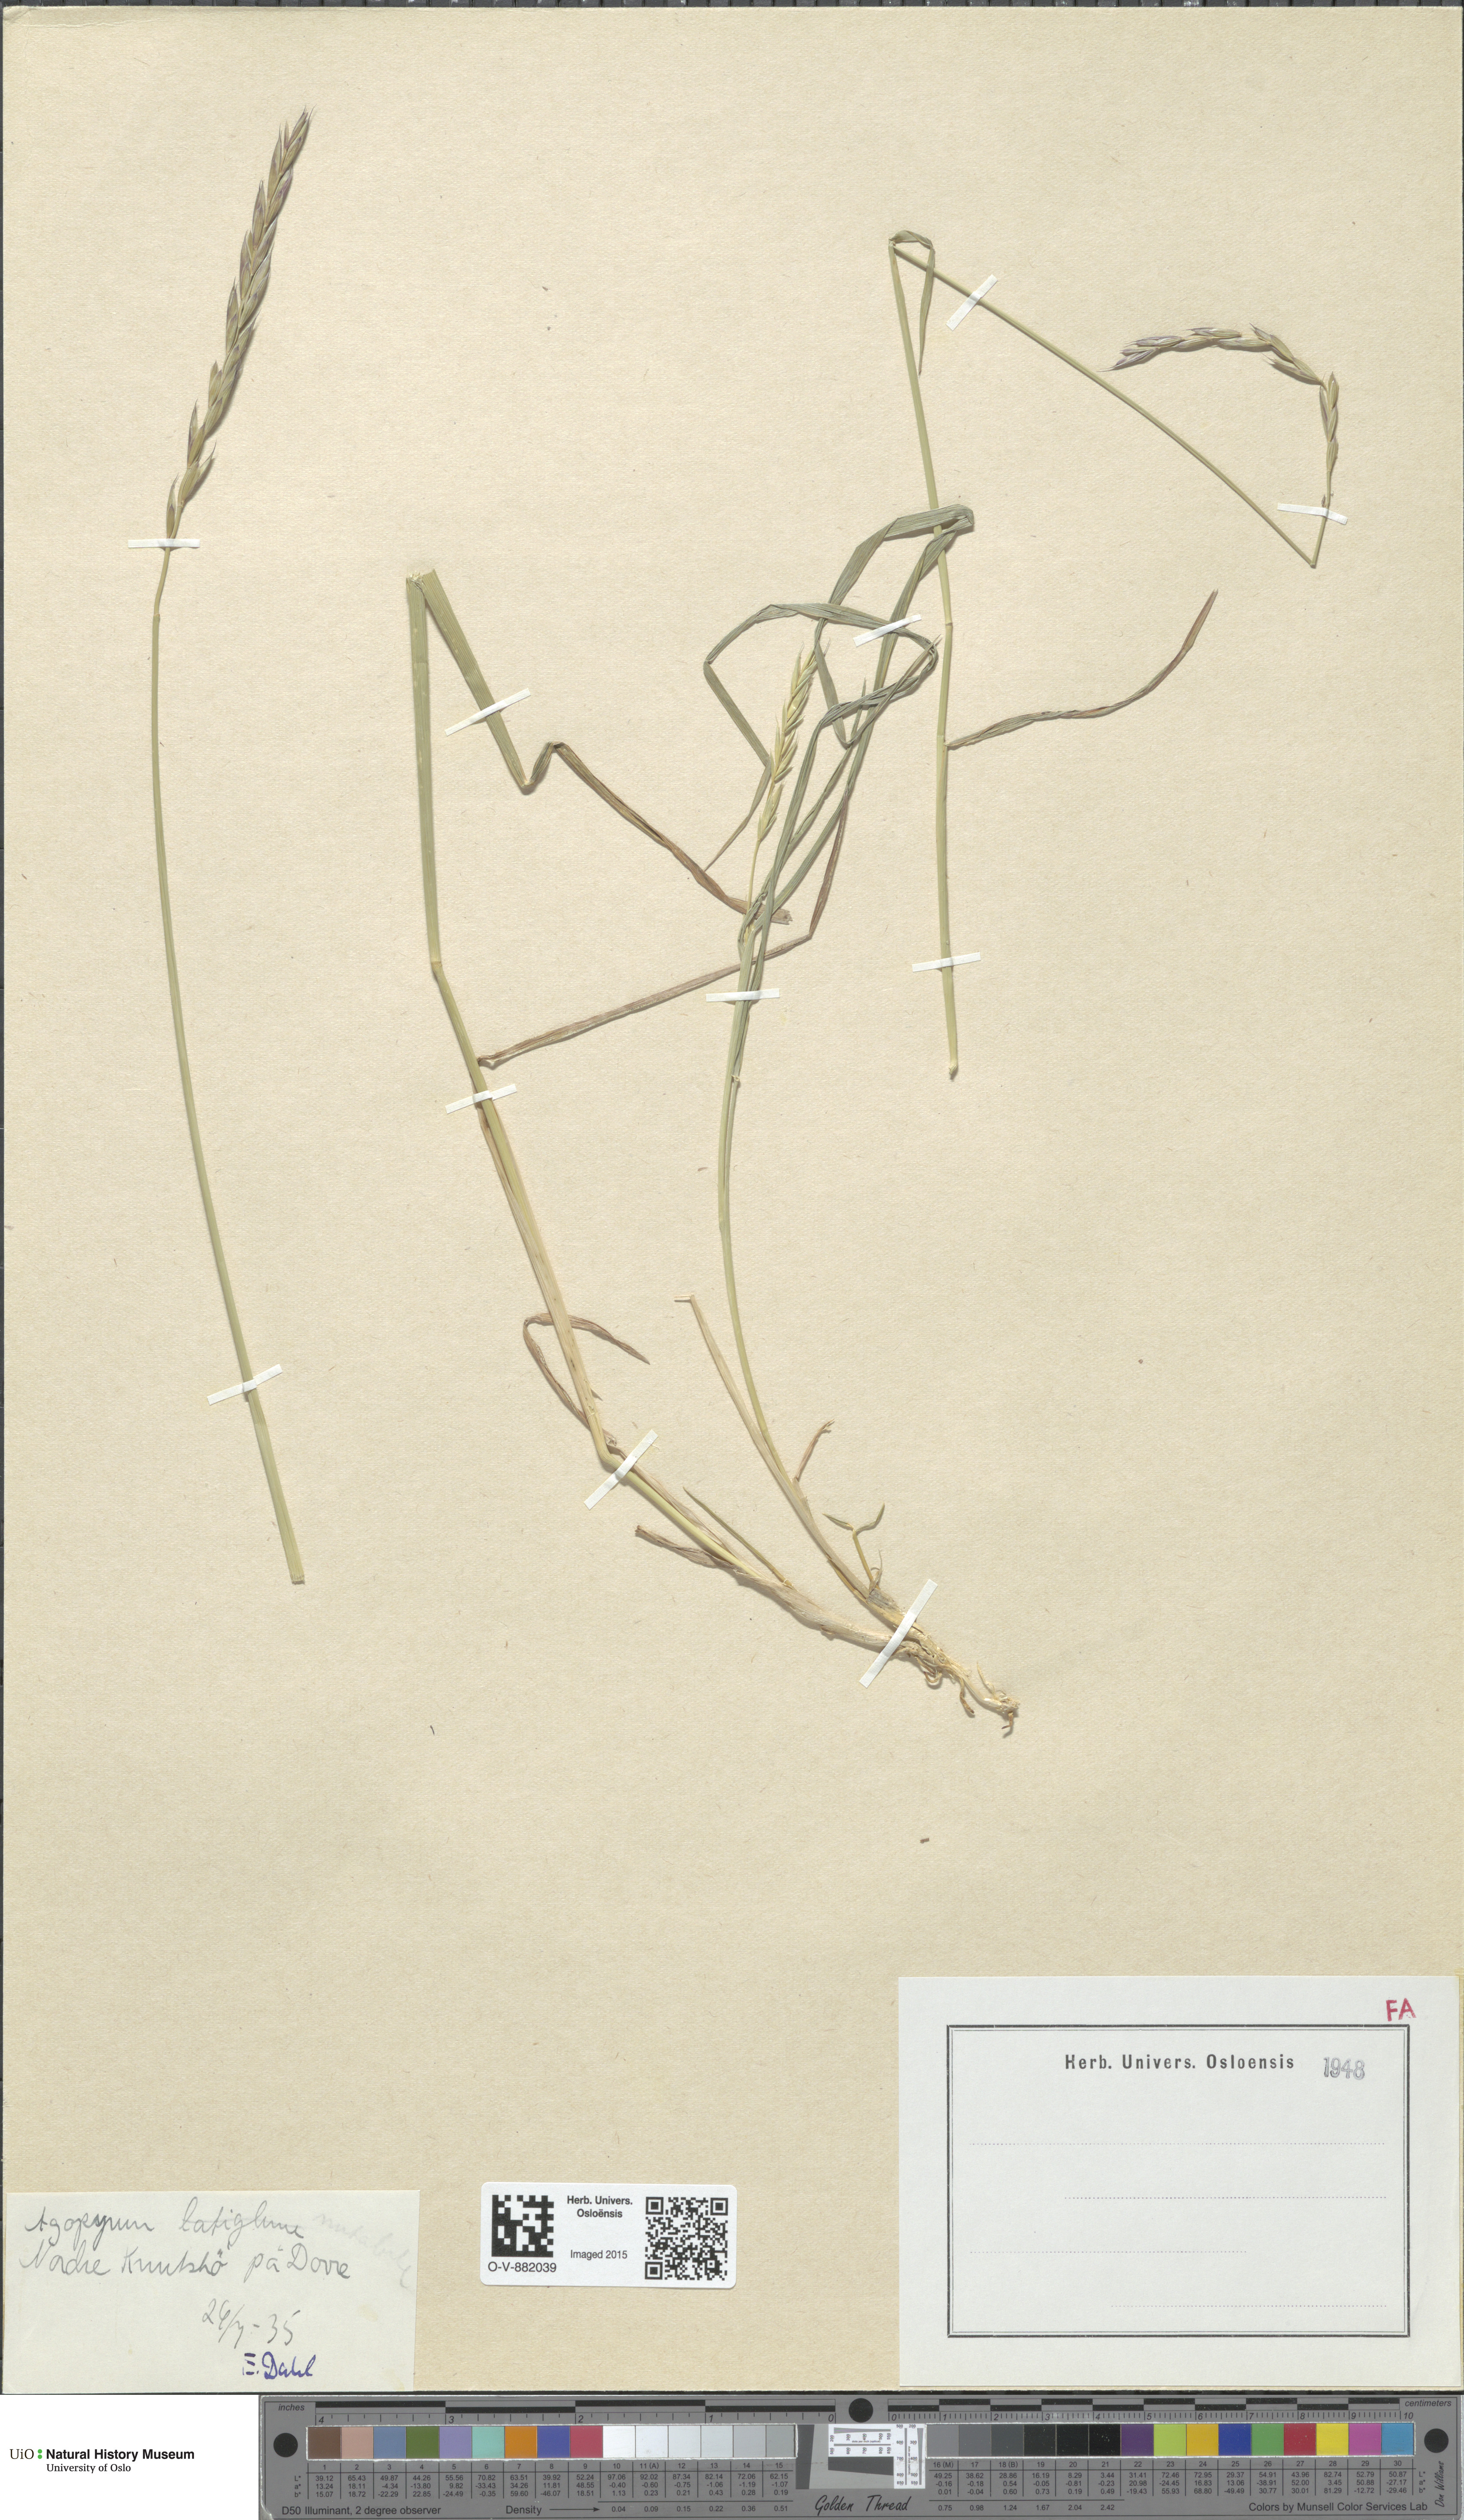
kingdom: Plantae
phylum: Tracheophyta
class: Liliopsida
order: Poales
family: Poaceae
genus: Elymus
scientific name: Elymus macrourus
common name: Northern wheatgrass
